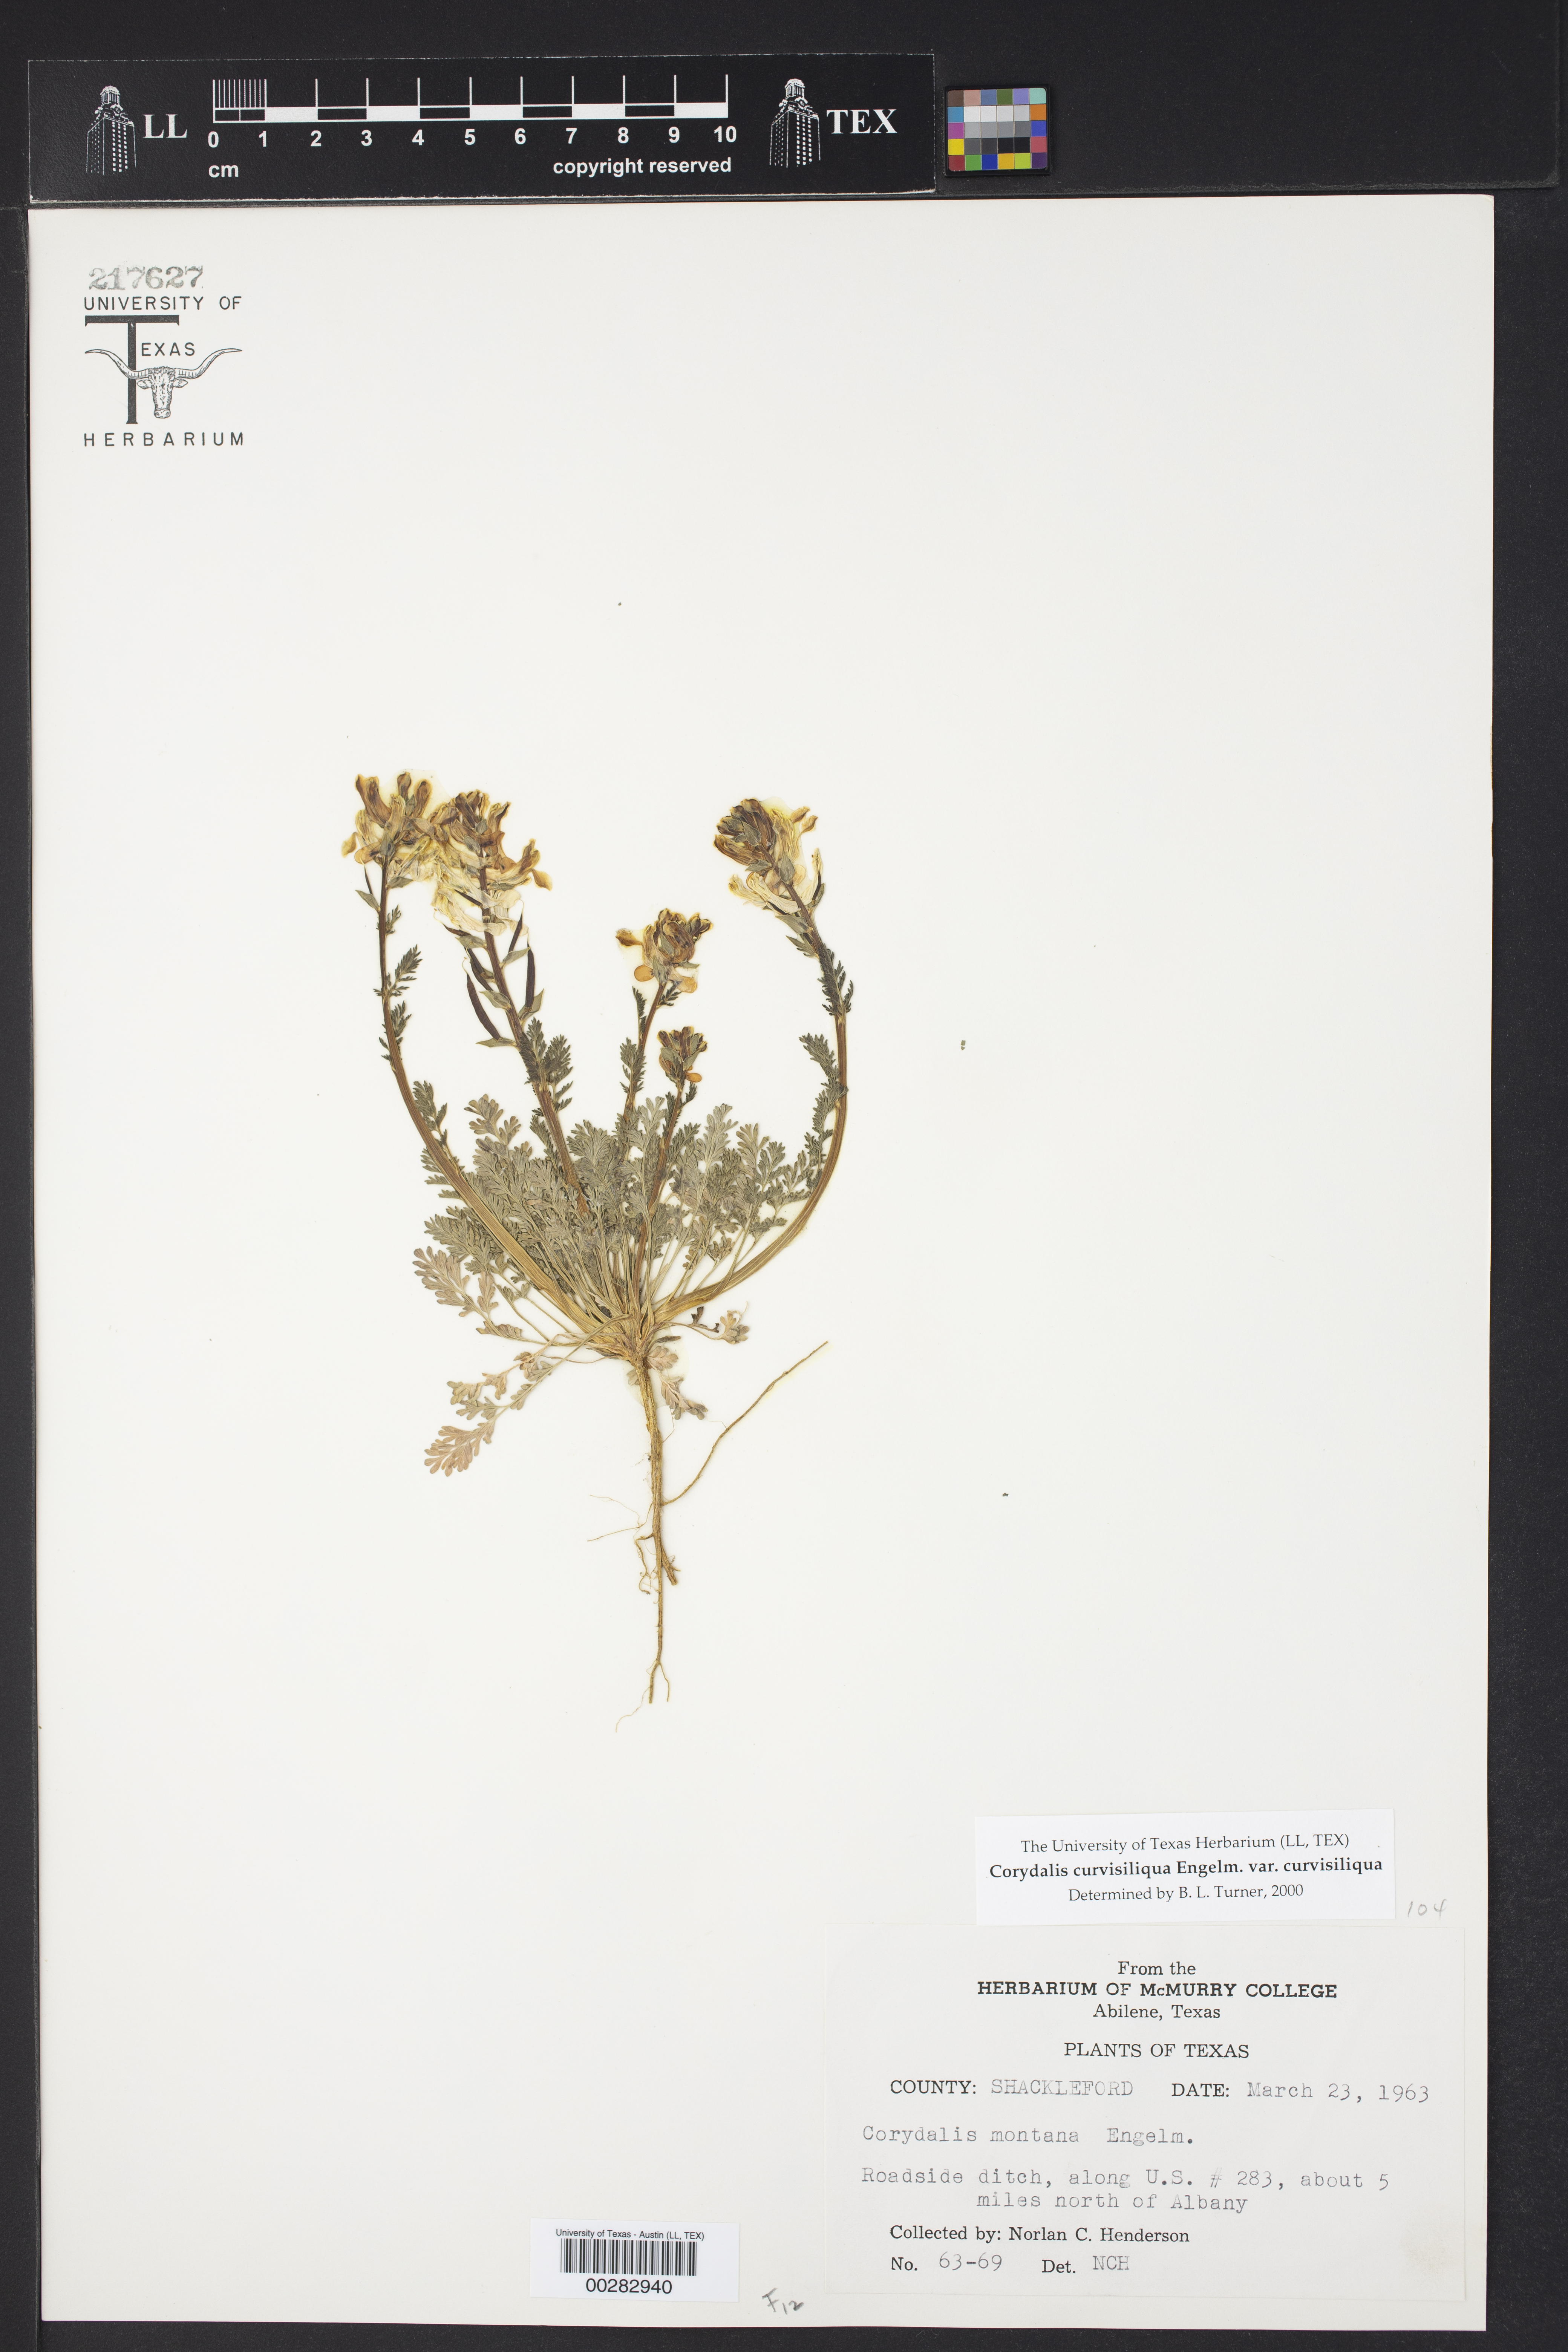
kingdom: Plantae
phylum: Tracheophyta
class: Magnoliopsida
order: Ranunculales
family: Papaveraceae
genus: Corydalis
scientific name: Corydalis curvisiliqua
